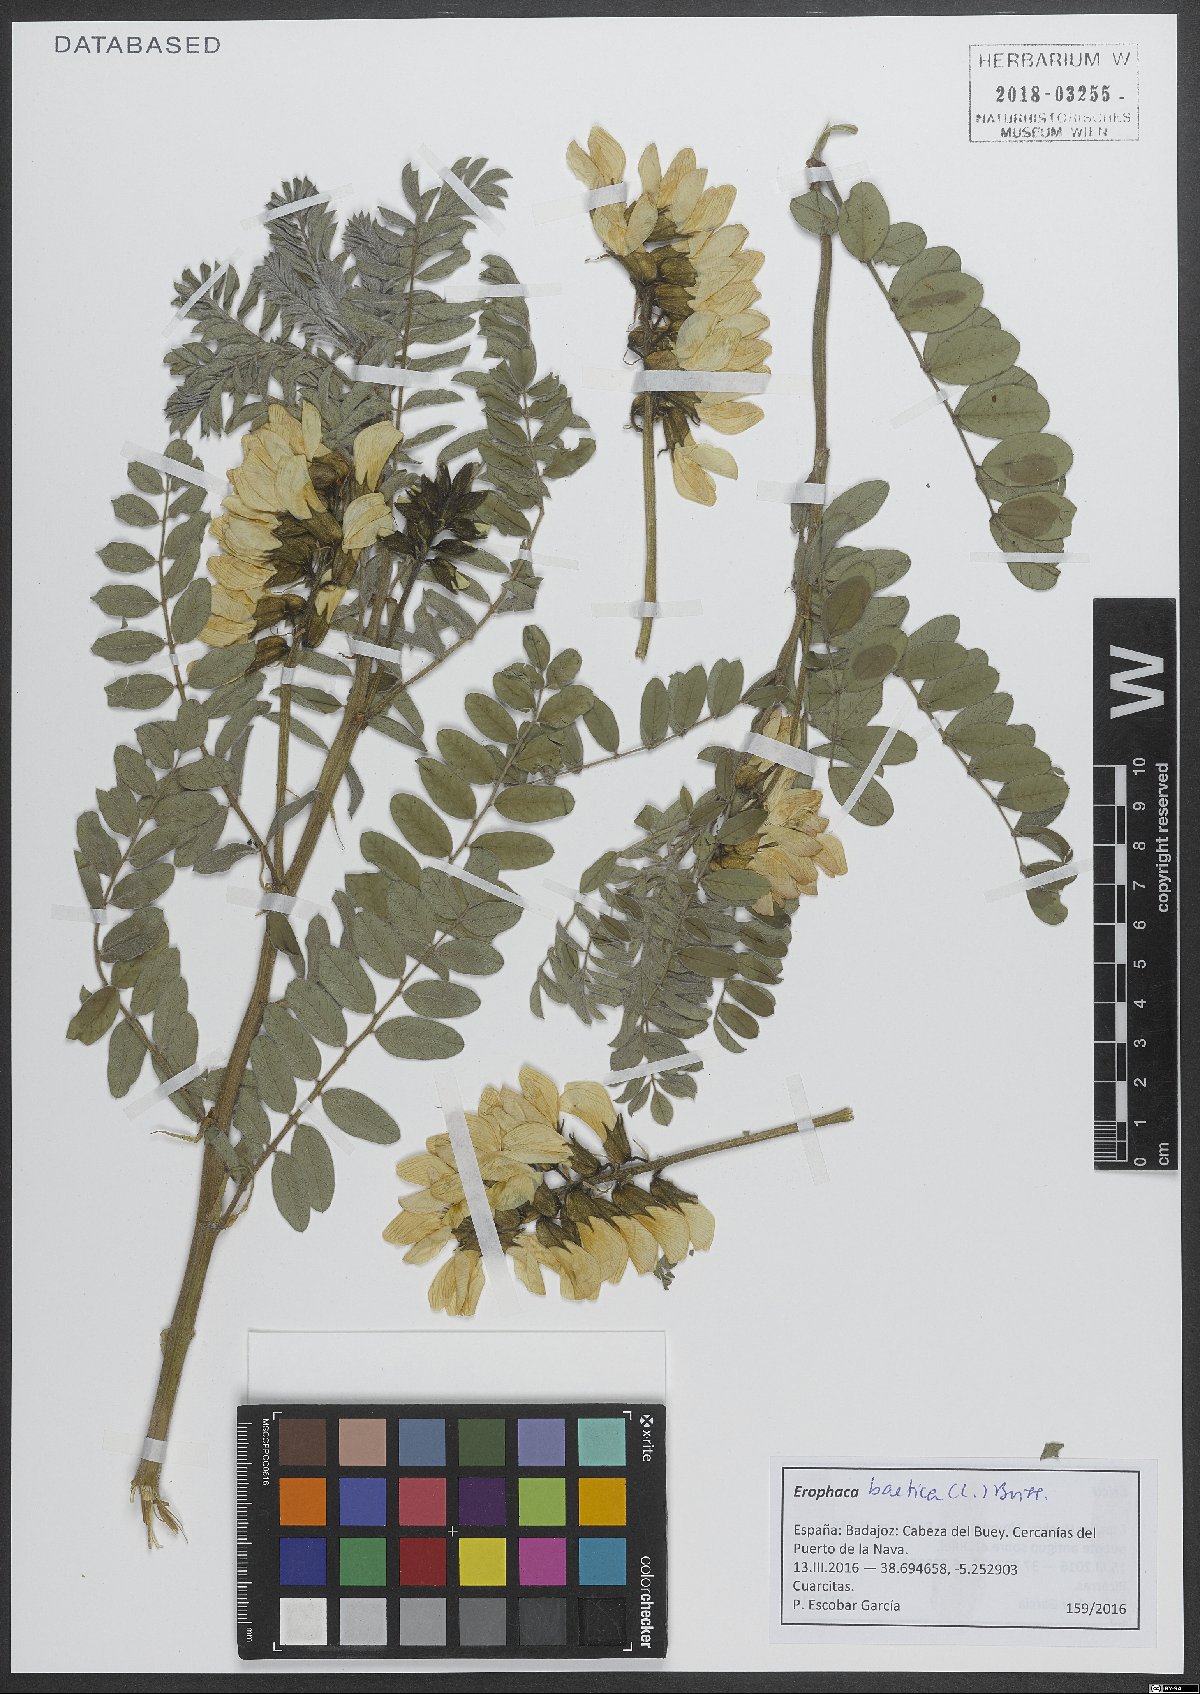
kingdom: Plantae
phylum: Tracheophyta
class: Magnoliopsida
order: Fabales
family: Fabaceae
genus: Erophaca
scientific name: Erophaca baetica
